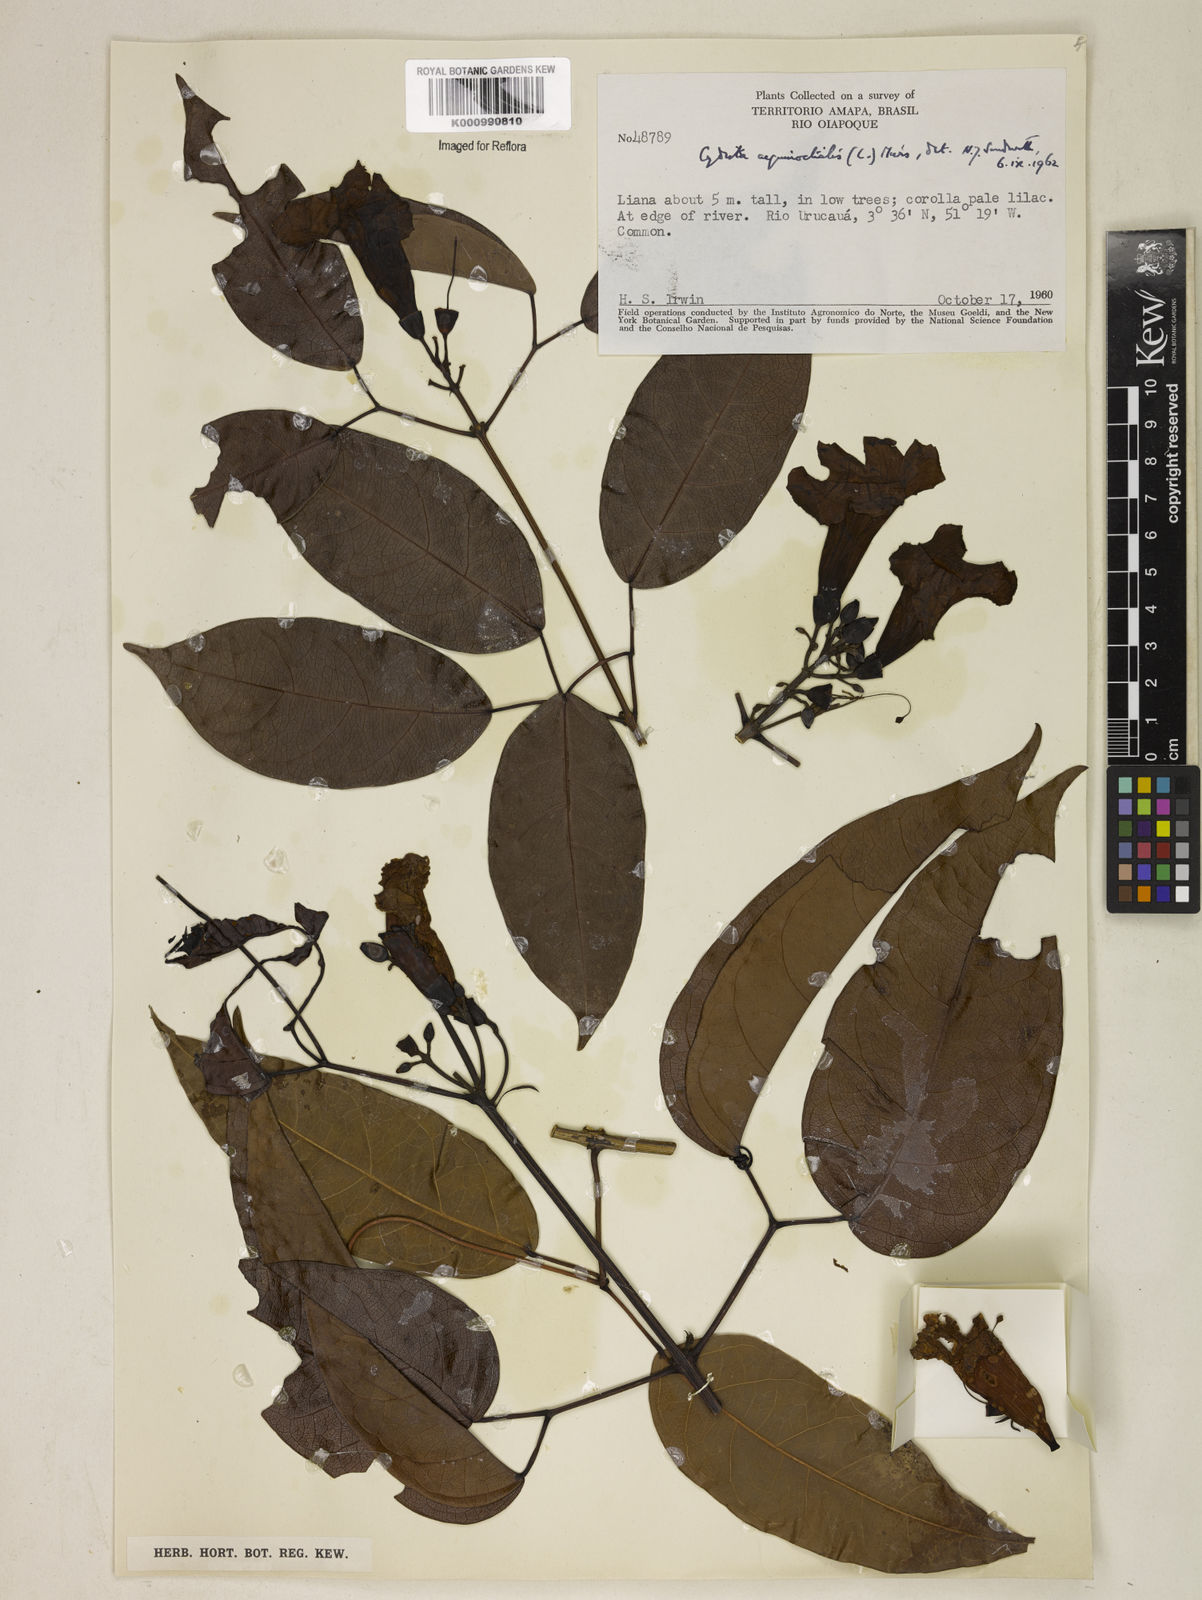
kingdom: Plantae
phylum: Tracheophyta
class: Magnoliopsida
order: Lamiales
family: Bignoniaceae
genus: Bignonia
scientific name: Bignonia aequinoctialis
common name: Garlicvine
